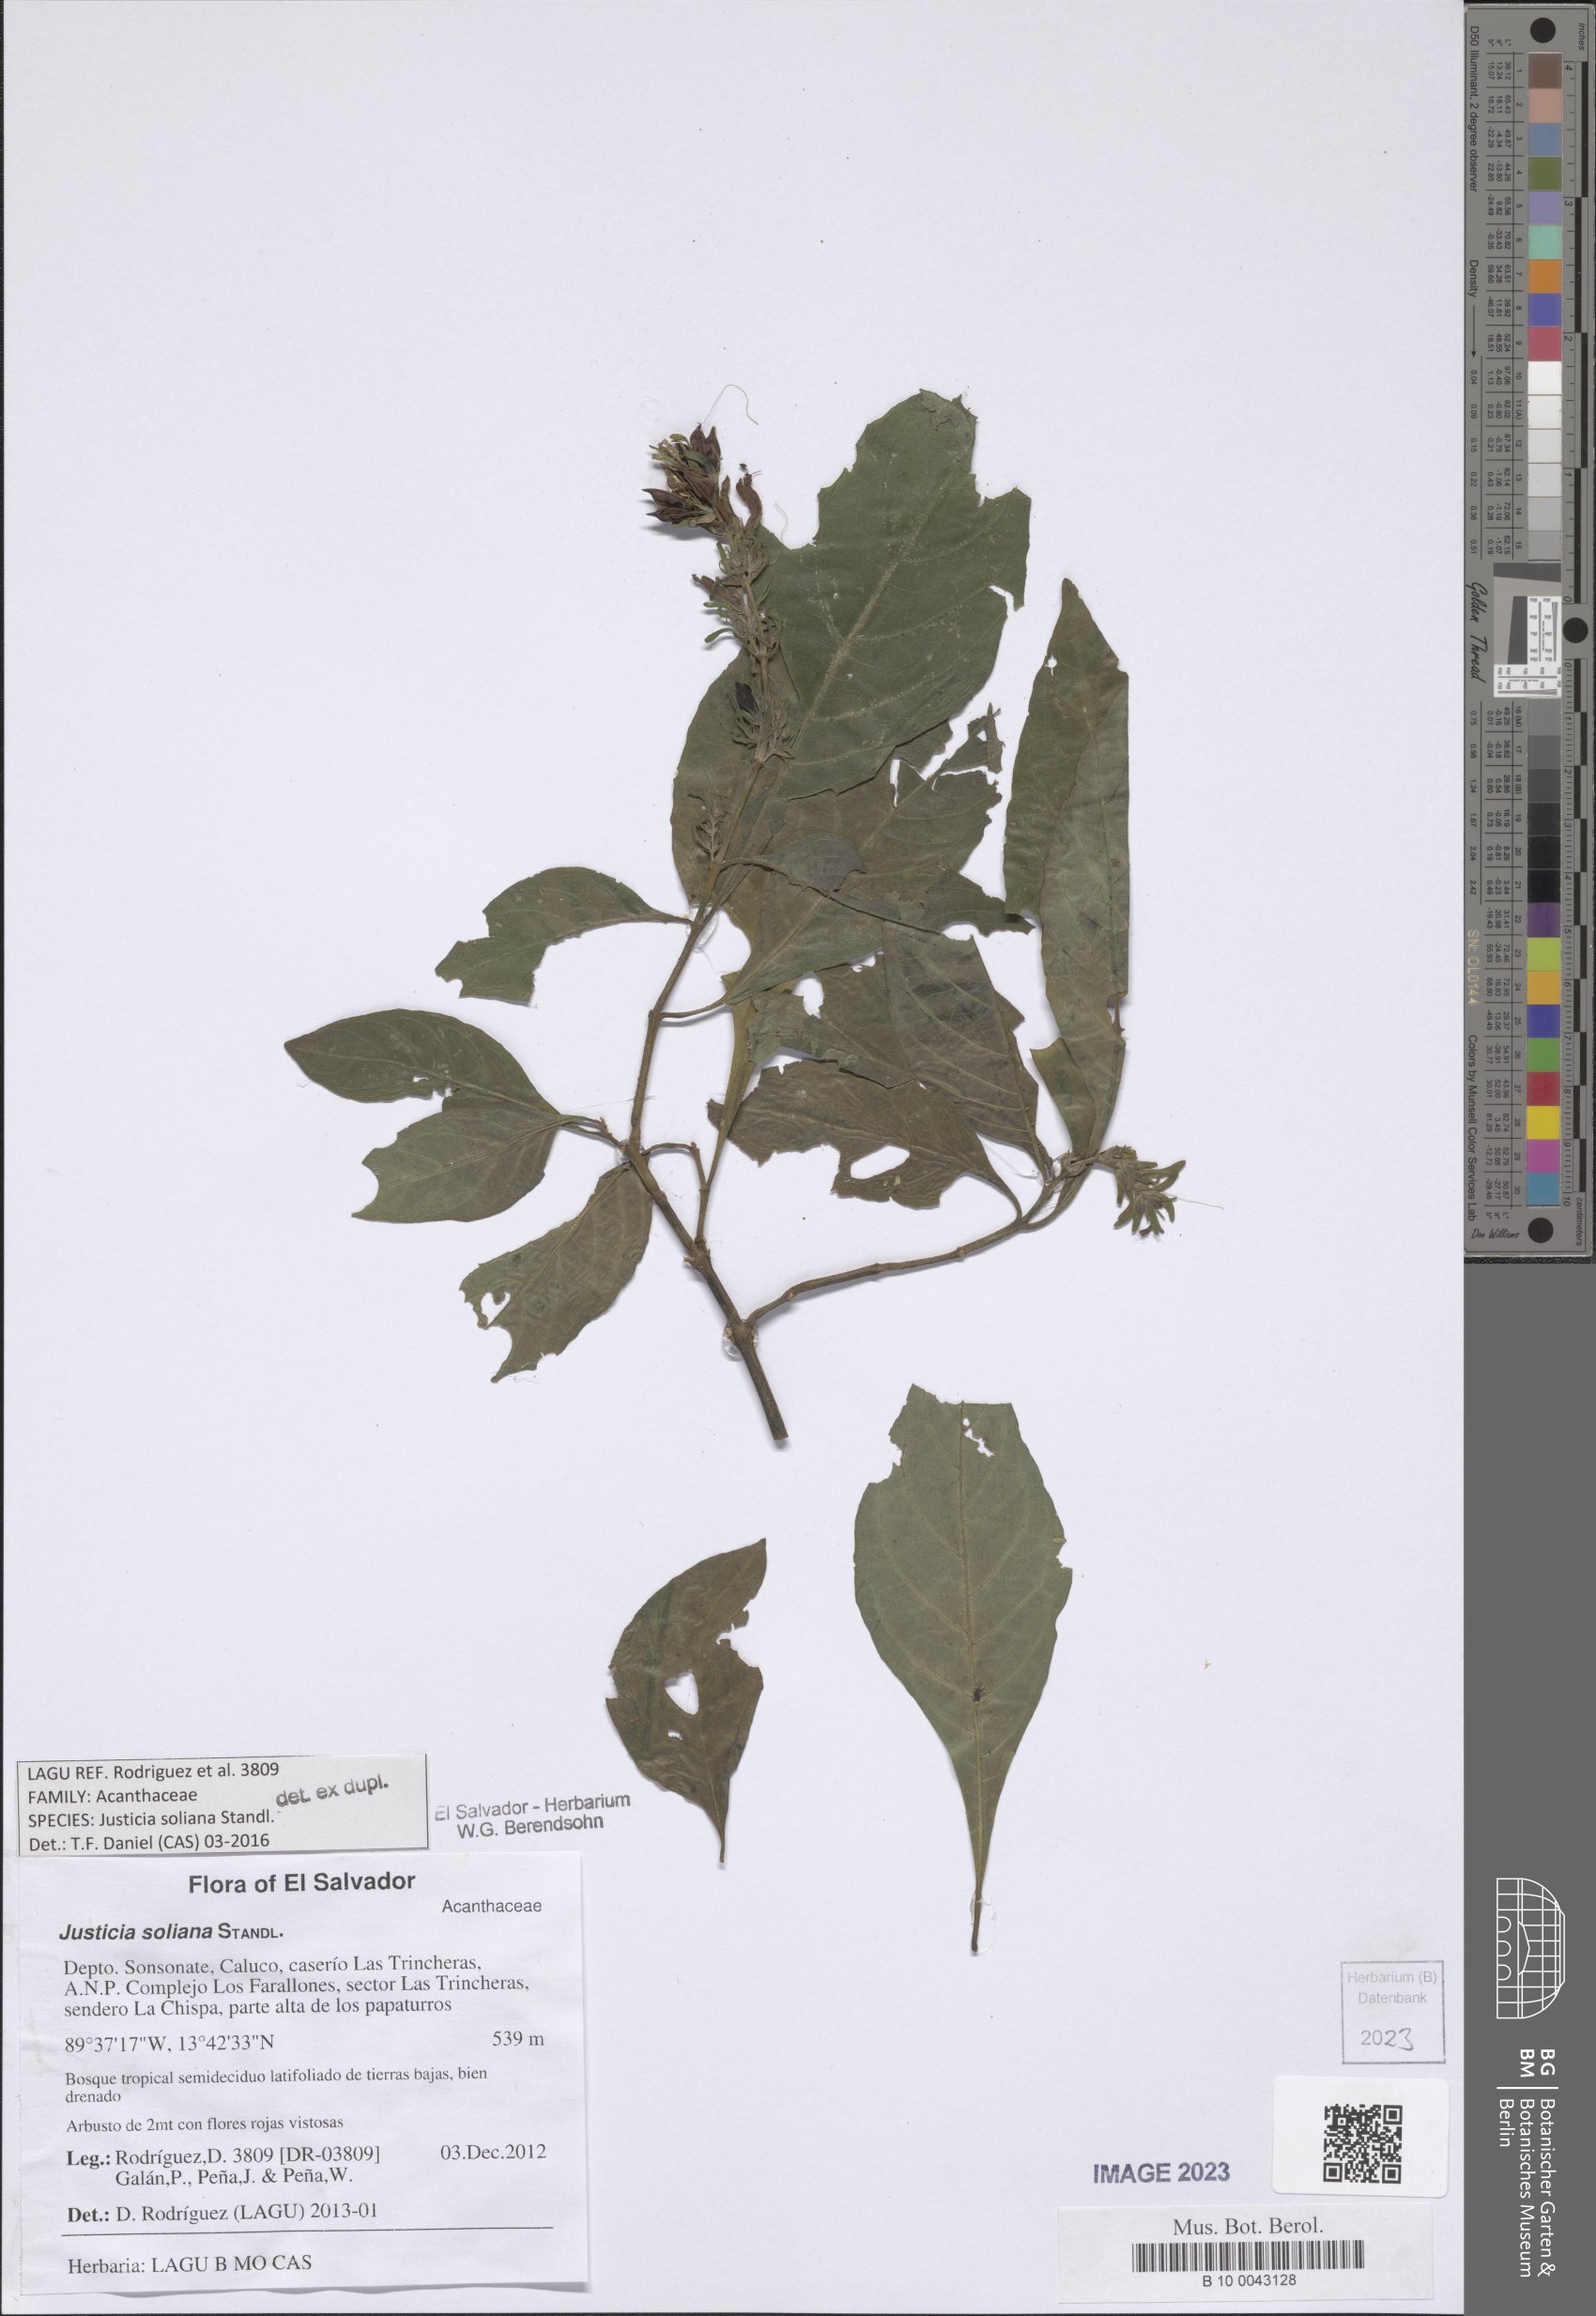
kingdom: Plantae
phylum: Tracheophyta
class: Magnoliopsida
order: Lamiales
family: Acanthaceae
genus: Justicia
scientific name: Justicia soliana
